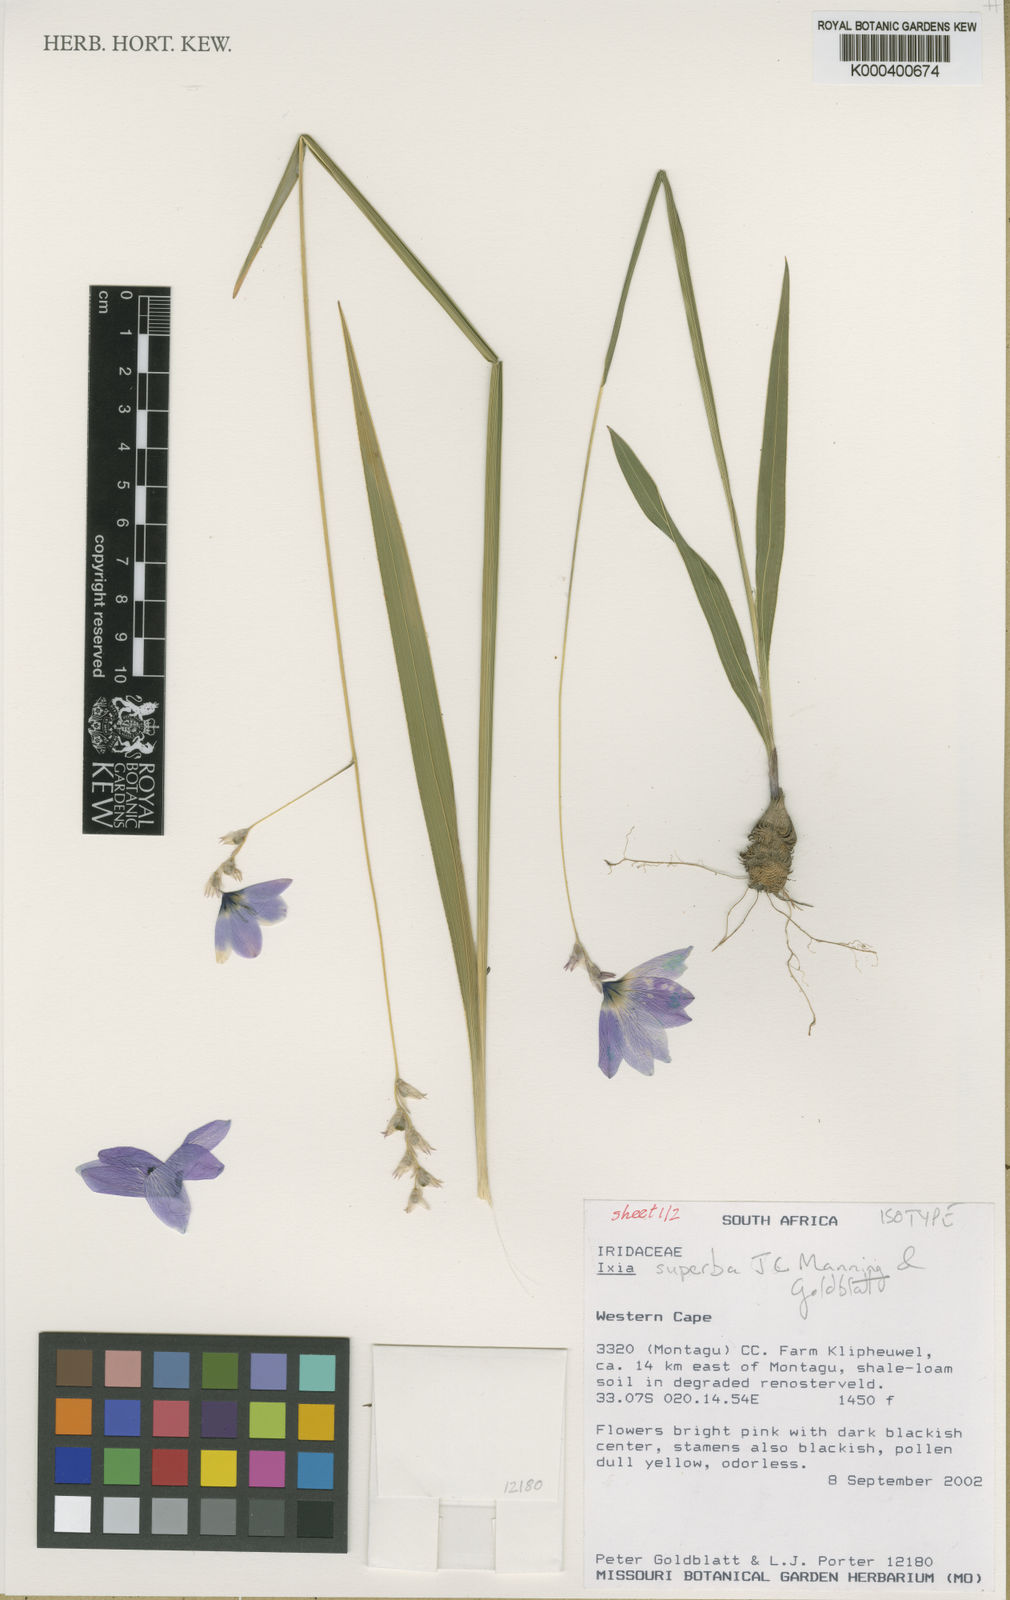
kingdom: Plantae
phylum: Tracheophyta
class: Liliopsida
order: Asparagales
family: Iridaceae
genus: Ixia
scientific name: Ixia superba
